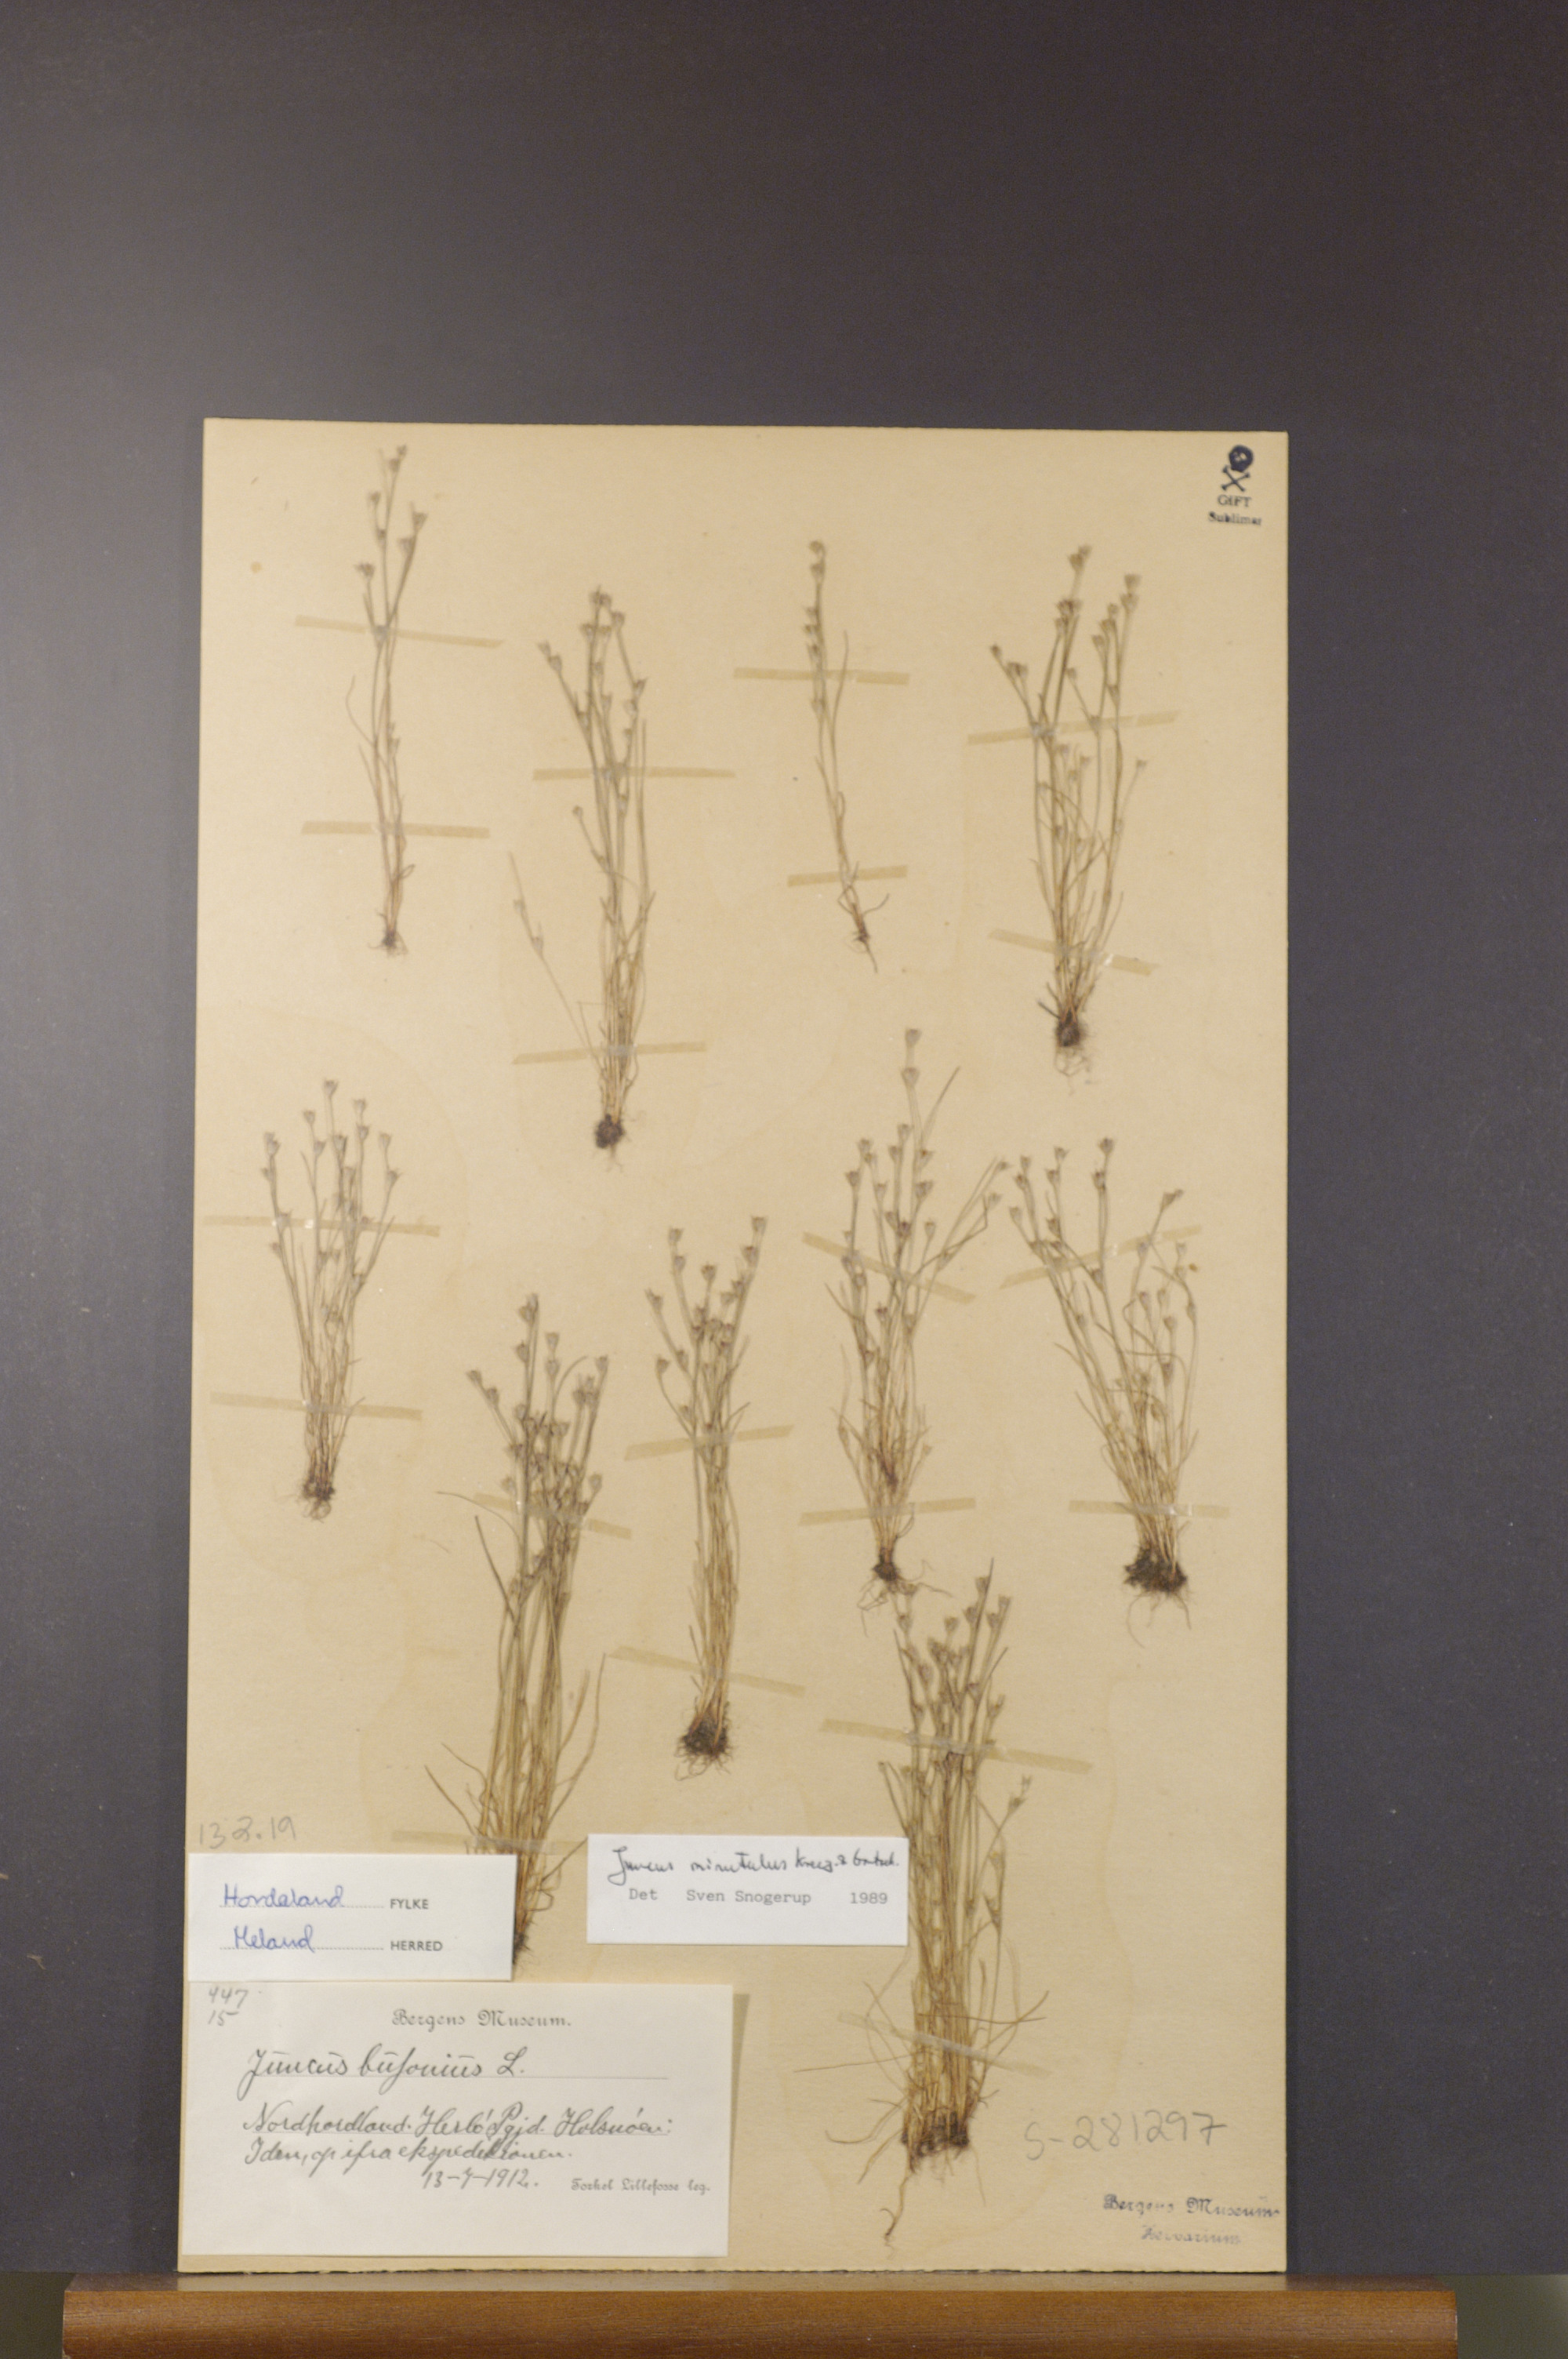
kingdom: Plantae
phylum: Tracheophyta
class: Liliopsida
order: Poales
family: Juncaceae
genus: Juncus
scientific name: Juncus minutulus
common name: Minute rush
